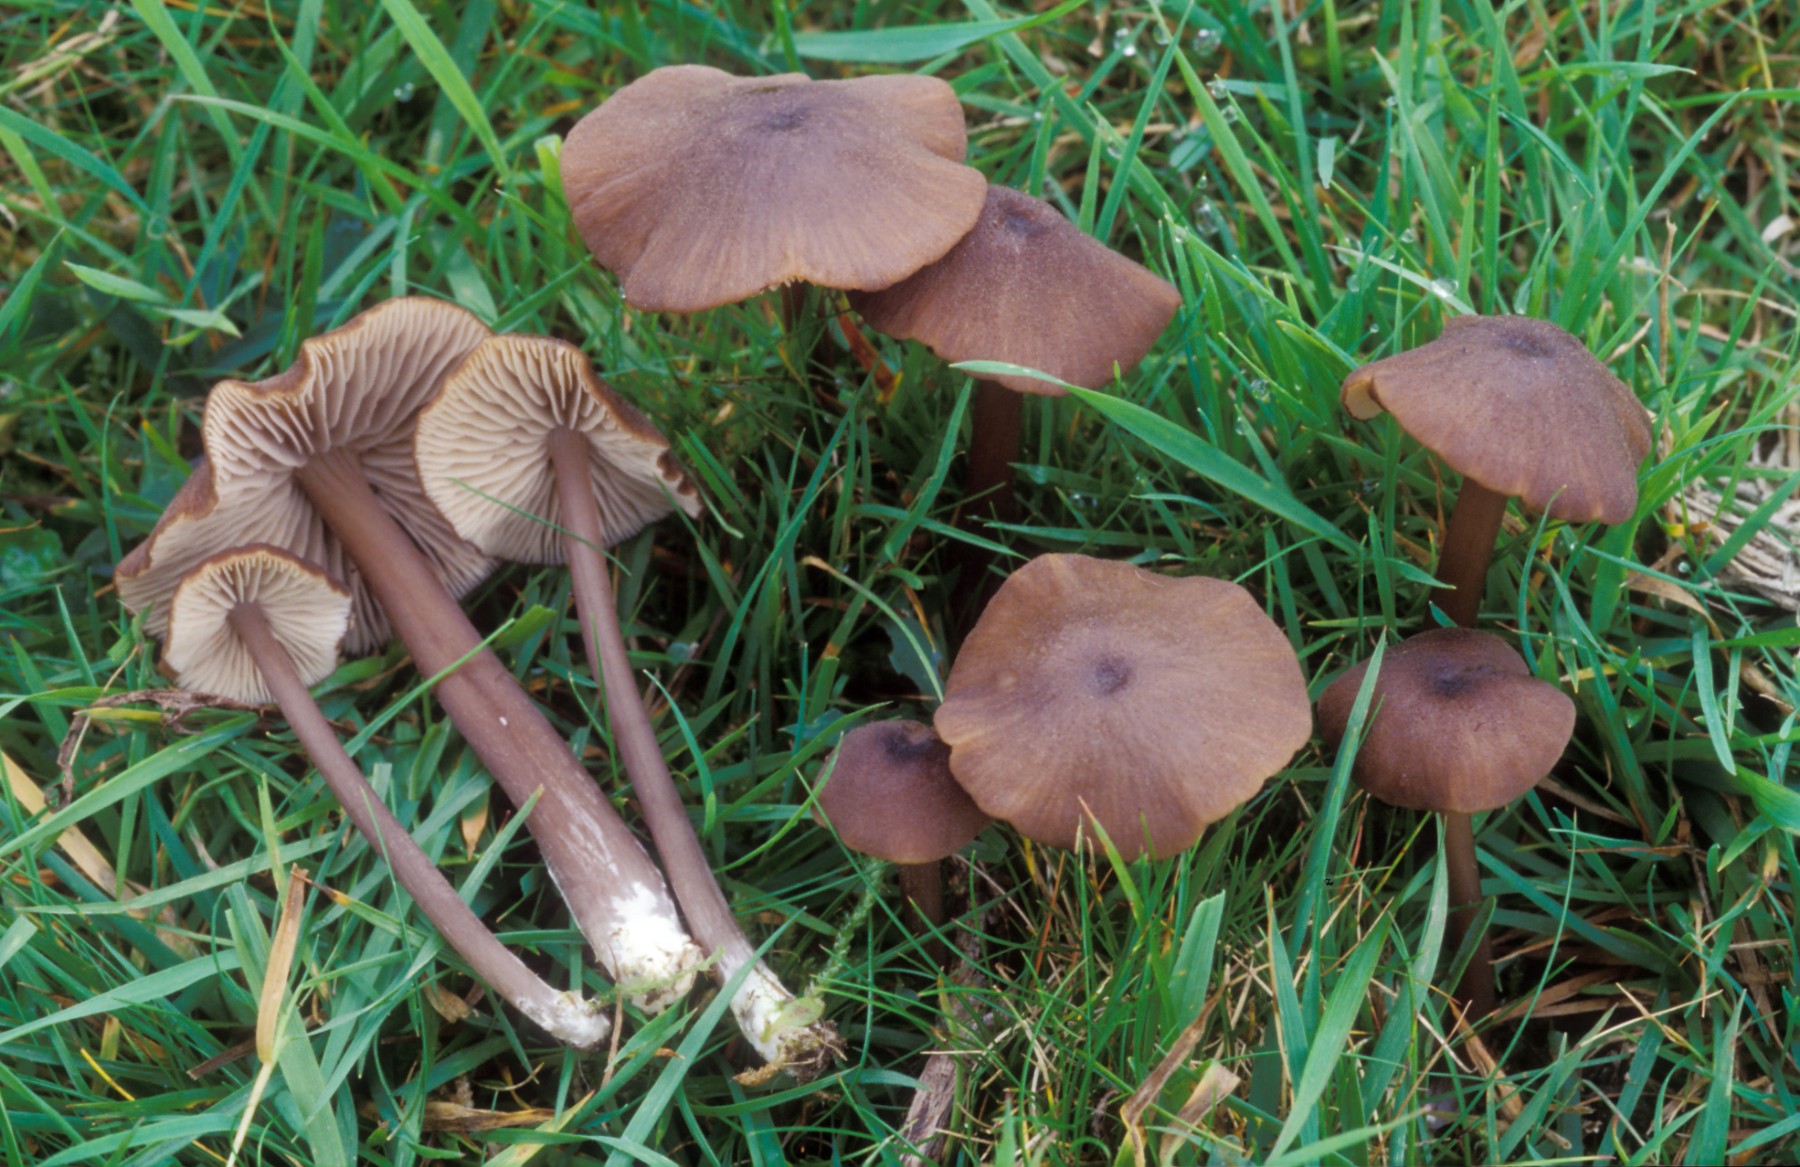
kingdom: Fungi
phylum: Basidiomycota
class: Agaricomycetes
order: Agaricales
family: Entolomataceae
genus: Entoloma
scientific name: Entoloma viiduense
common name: purpurbrun rødblad
